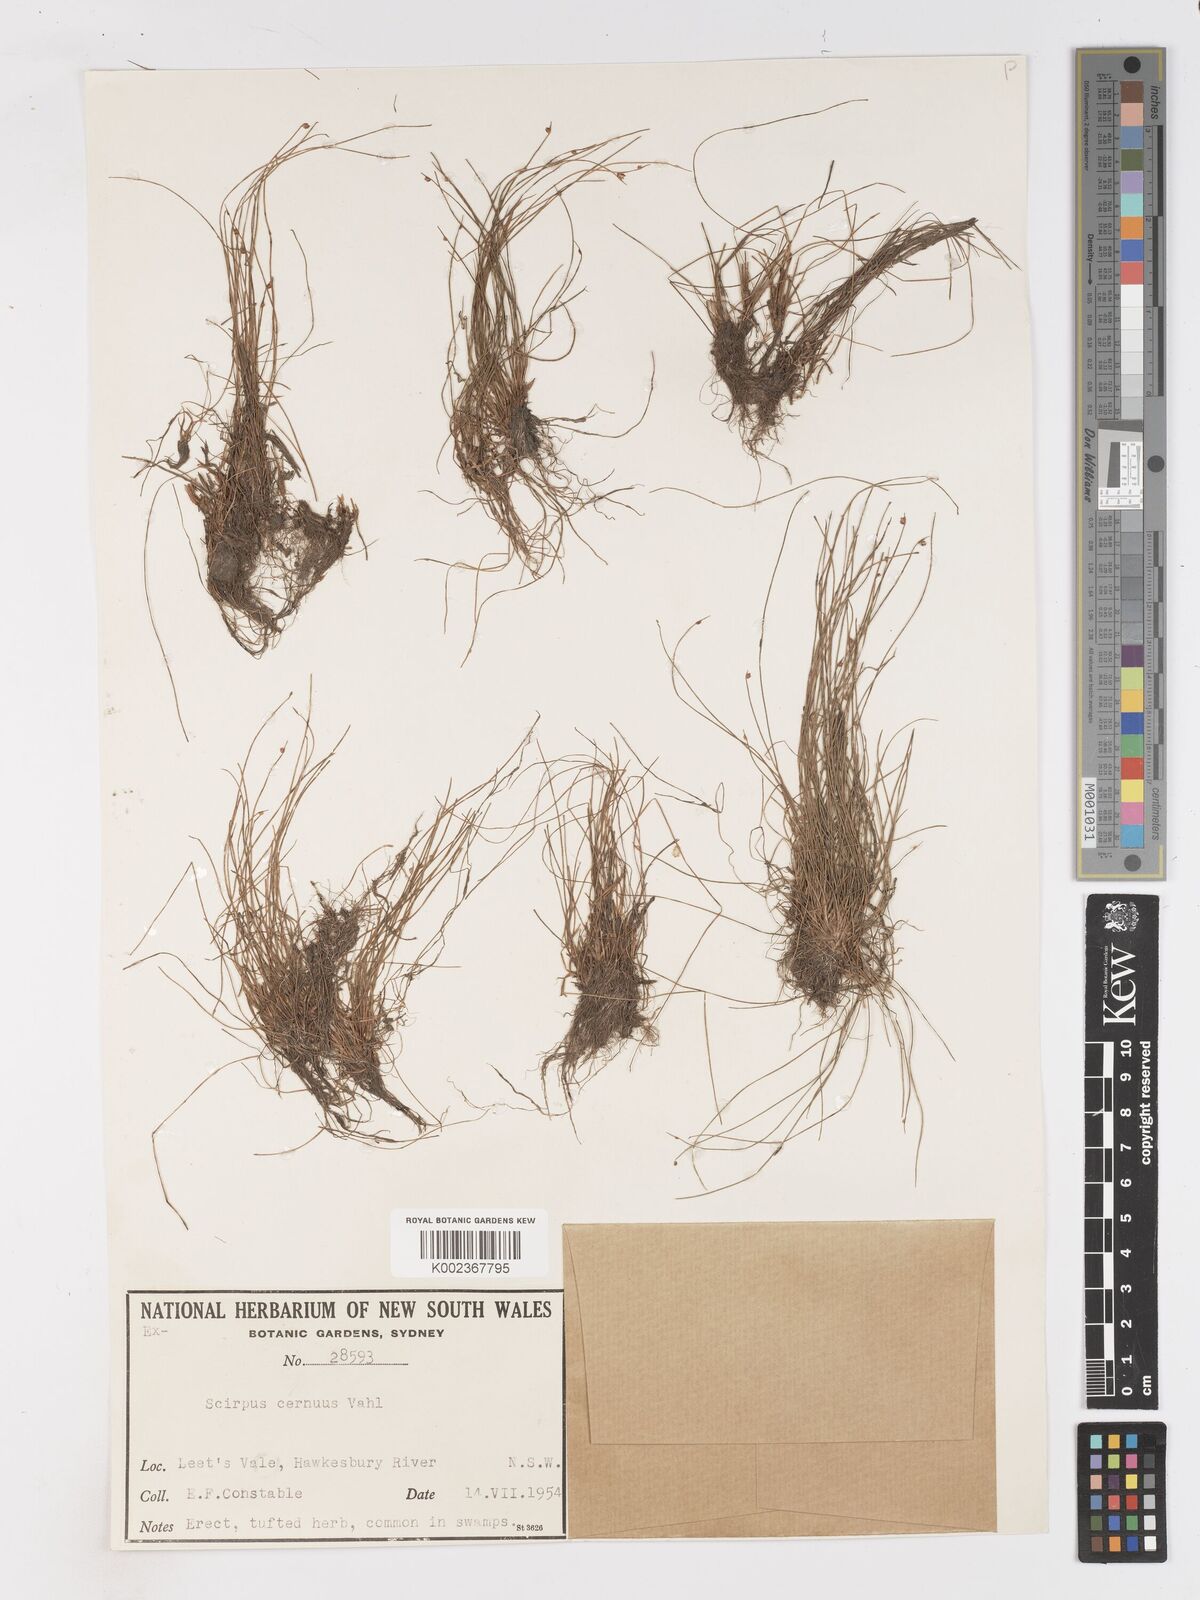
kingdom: Plantae
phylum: Tracheophyta
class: Liliopsida
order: Poales
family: Cyperaceae
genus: Isolepis
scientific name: Isolepis cernua
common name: Slender club-rush
